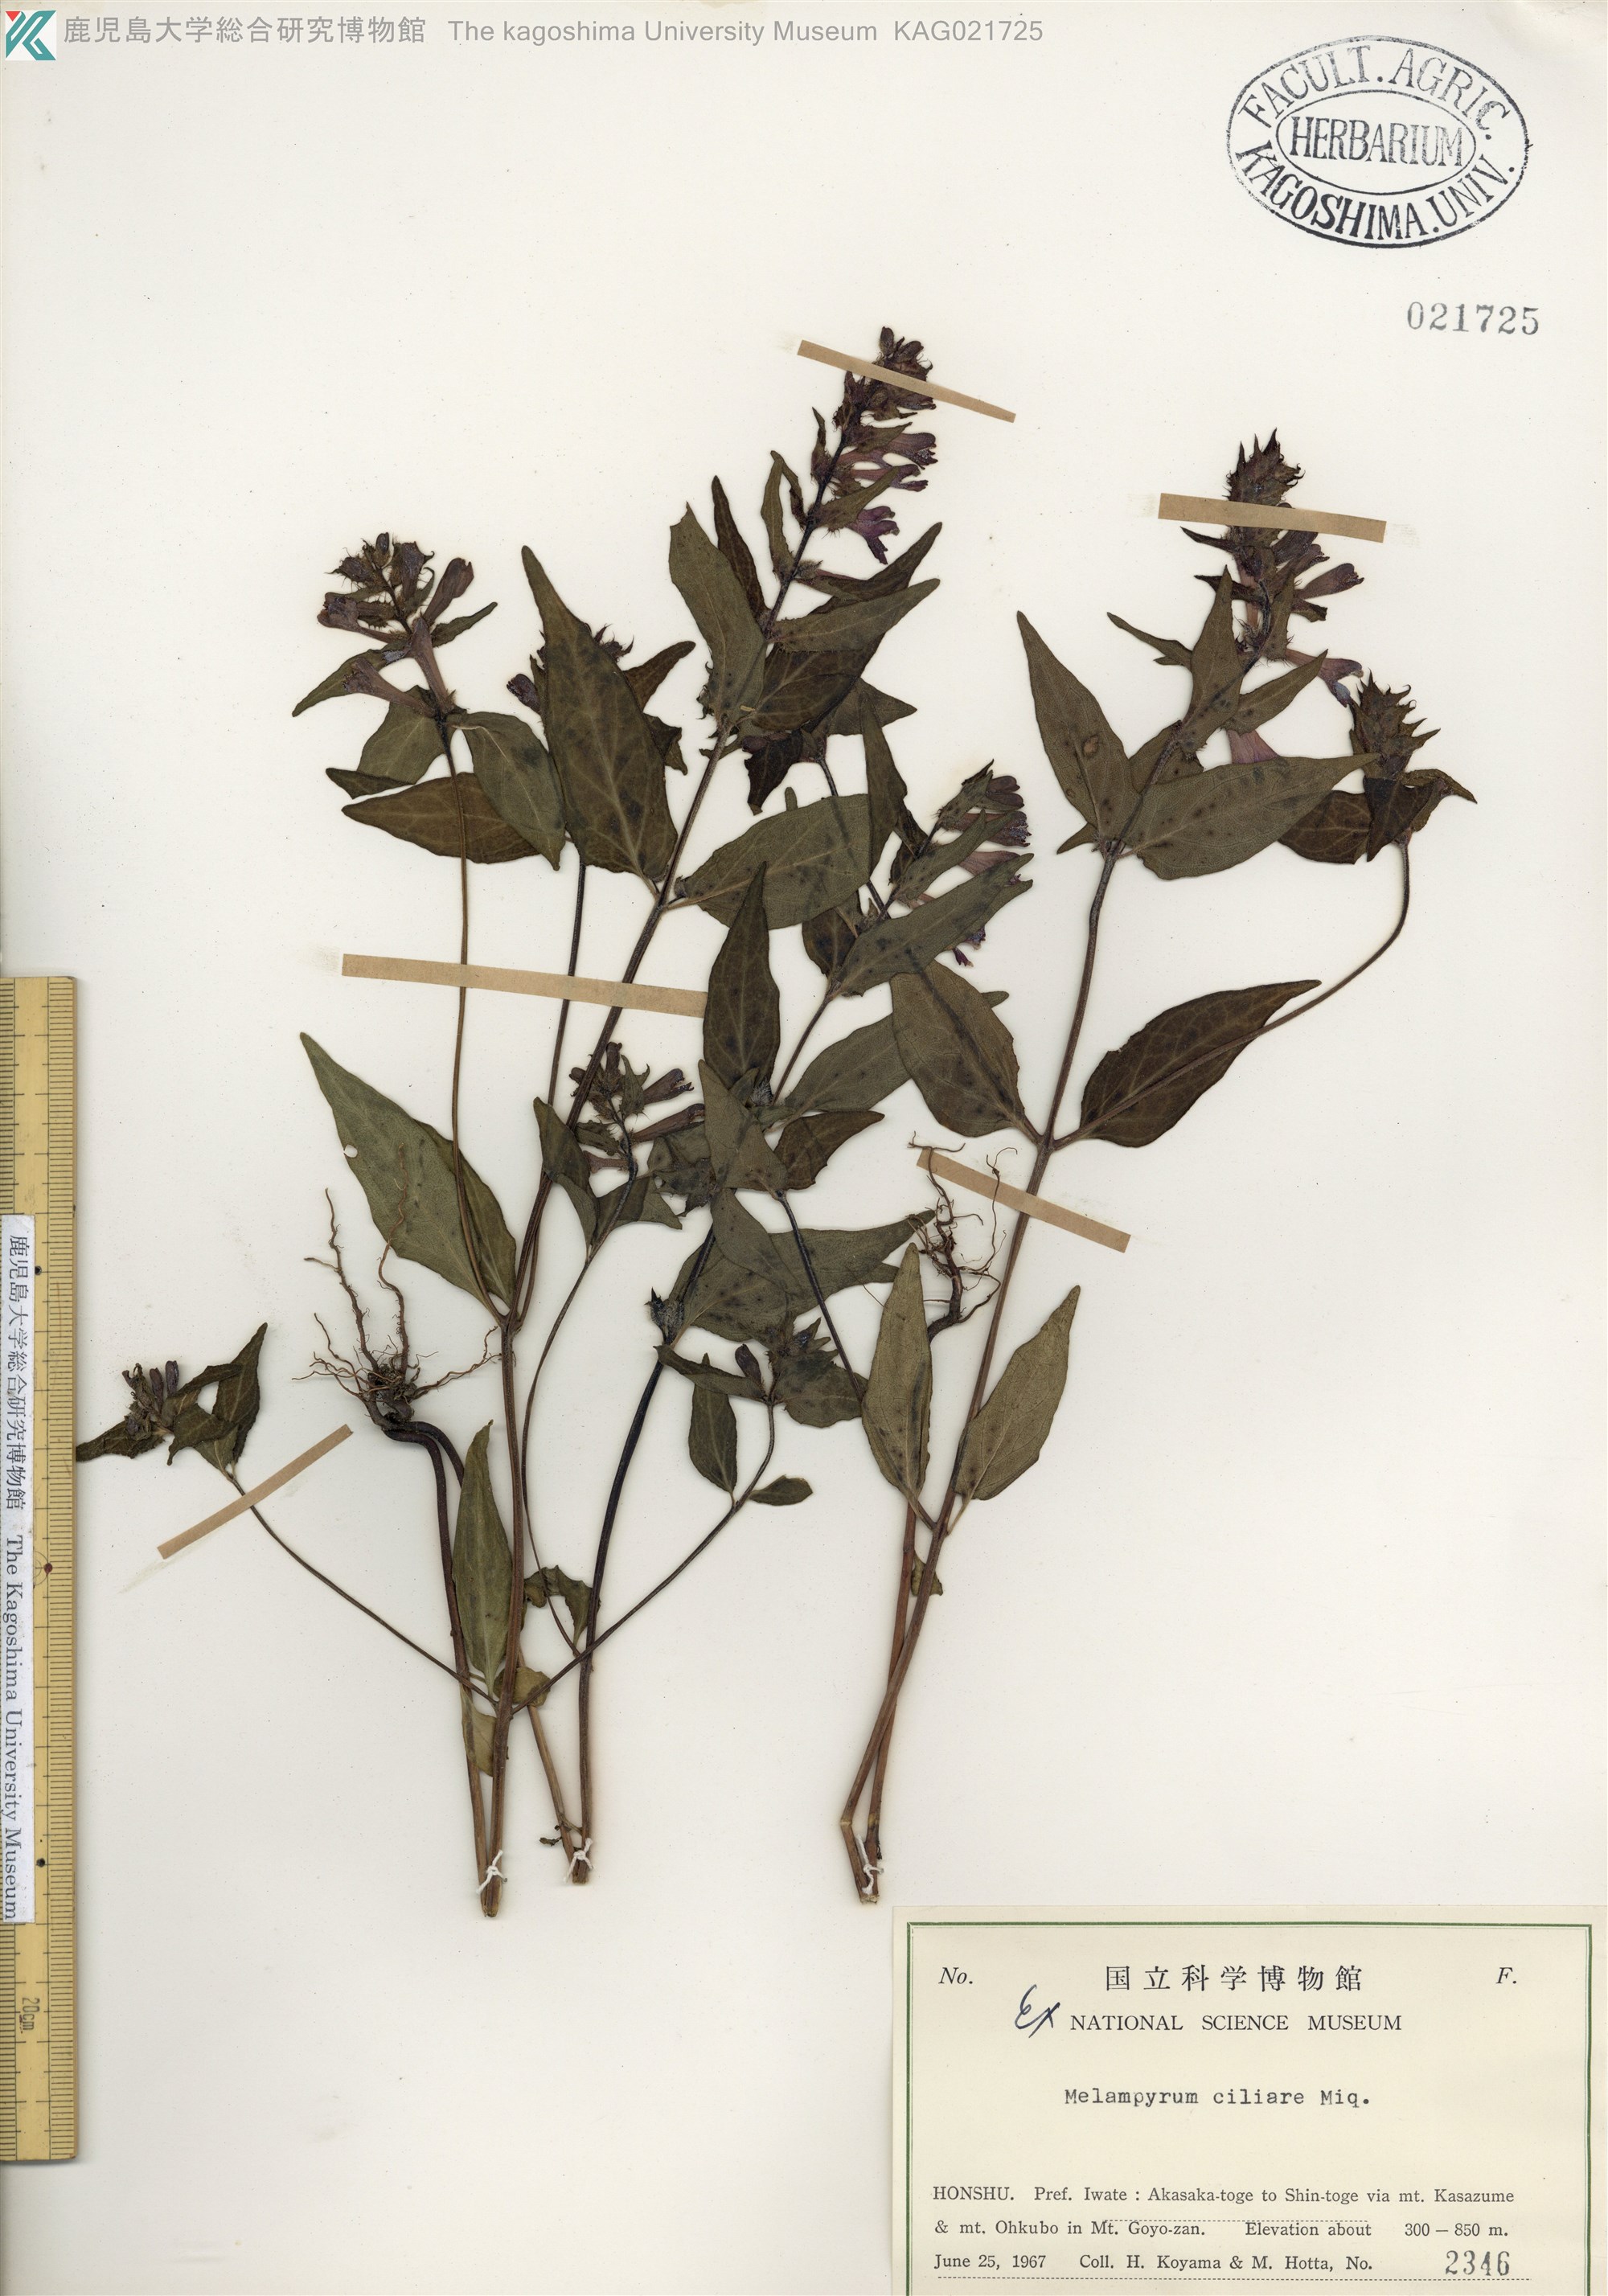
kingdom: Plantae
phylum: Tracheophyta
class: Magnoliopsida
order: Lamiales
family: Orobanchaceae
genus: Melampyrum
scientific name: Melampyrum roseum
